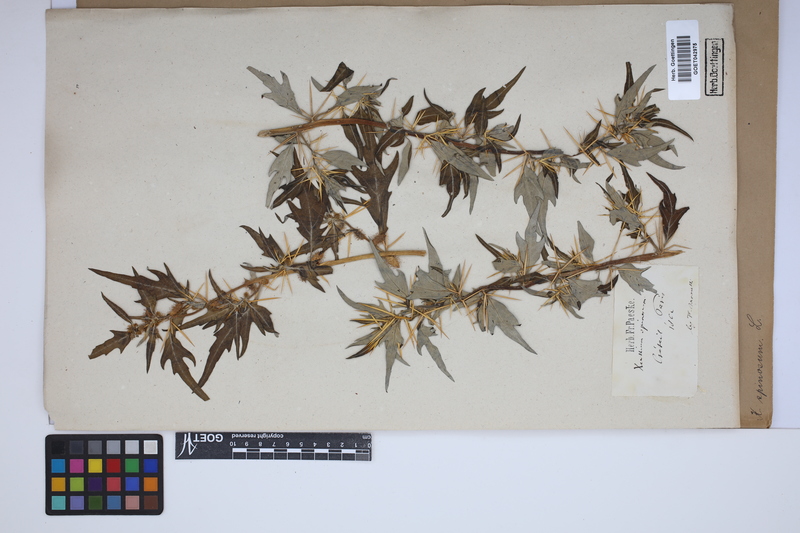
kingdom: Plantae
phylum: Tracheophyta
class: Magnoliopsida
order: Asterales
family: Asteraceae
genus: Xanthium
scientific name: Xanthium spinosum
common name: Spiny cocklebur
